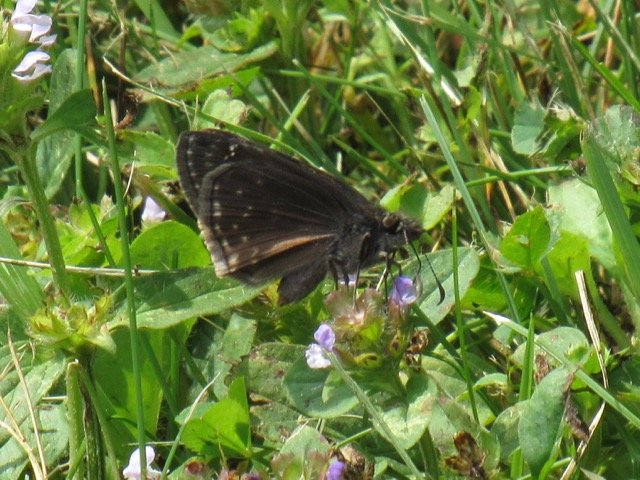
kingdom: Animalia
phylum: Arthropoda
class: Insecta
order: Lepidoptera
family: Hesperiidae
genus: Gesta
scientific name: Gesta
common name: Wild Indigo Duskywing
